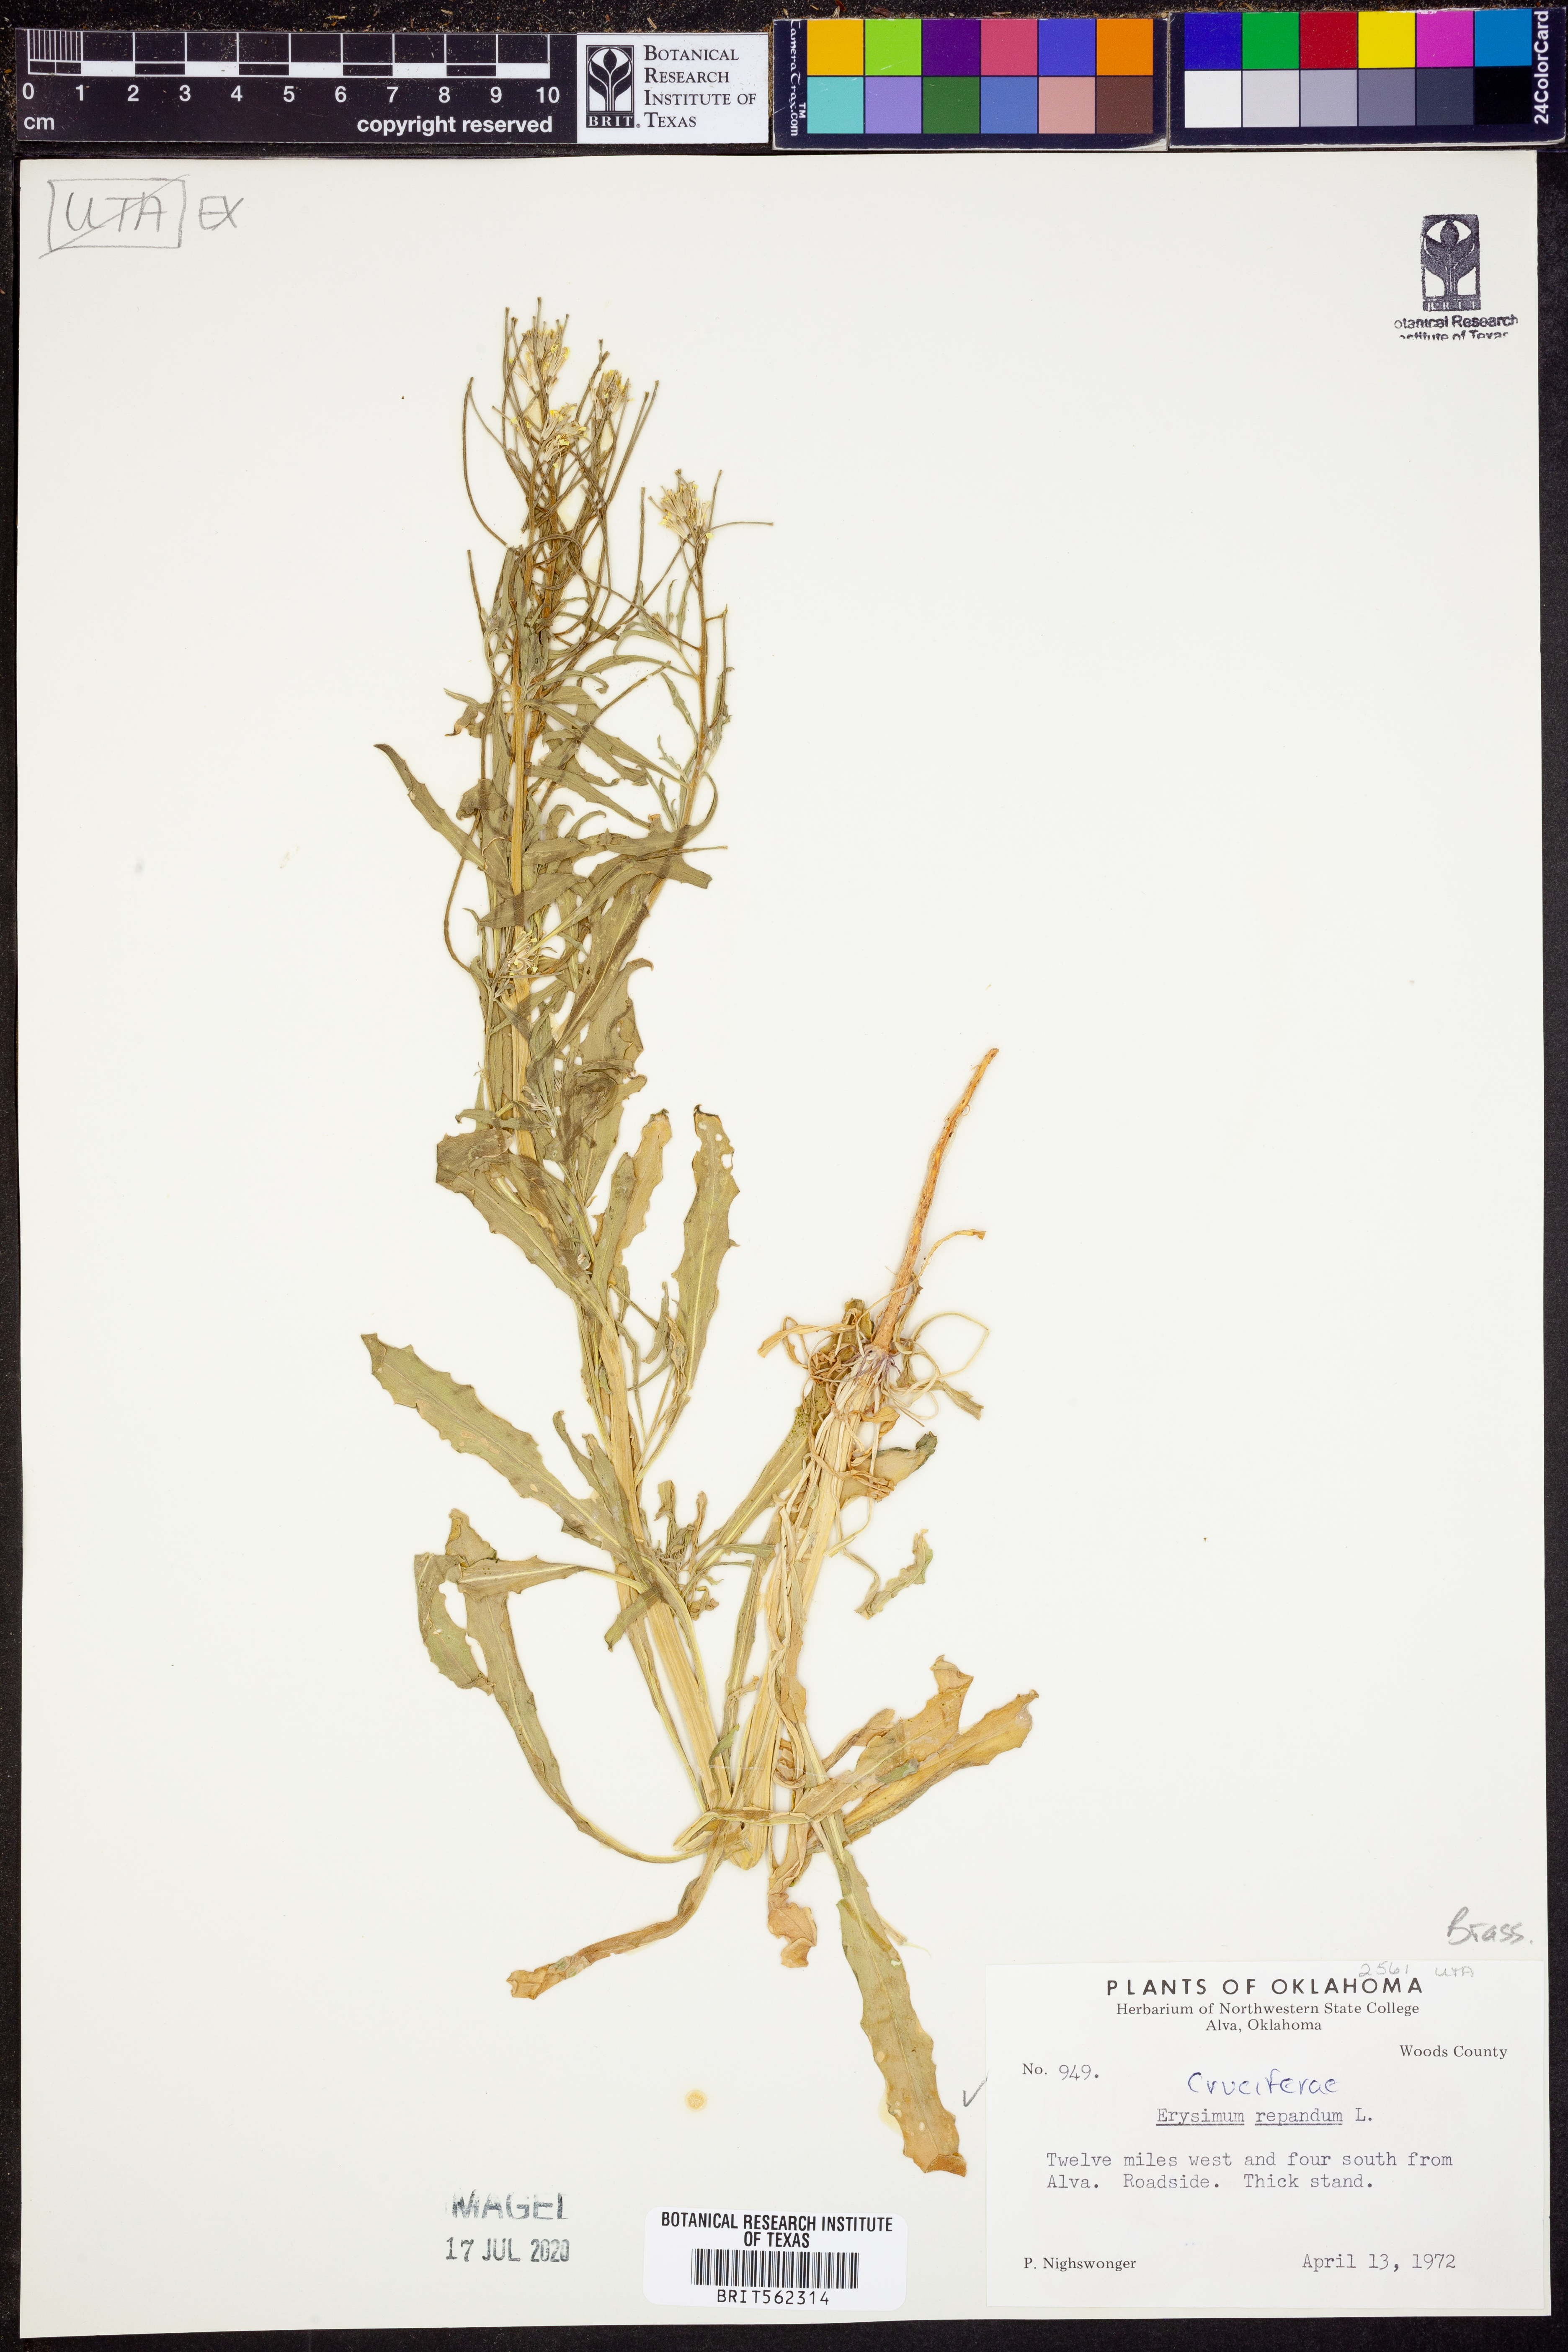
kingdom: Plantae
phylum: Tracheophyta
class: Magnoliopsida
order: Brassicales
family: Brassicaceae
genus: Erysimum
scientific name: Erysimum repandum
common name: Spreading wallflower
